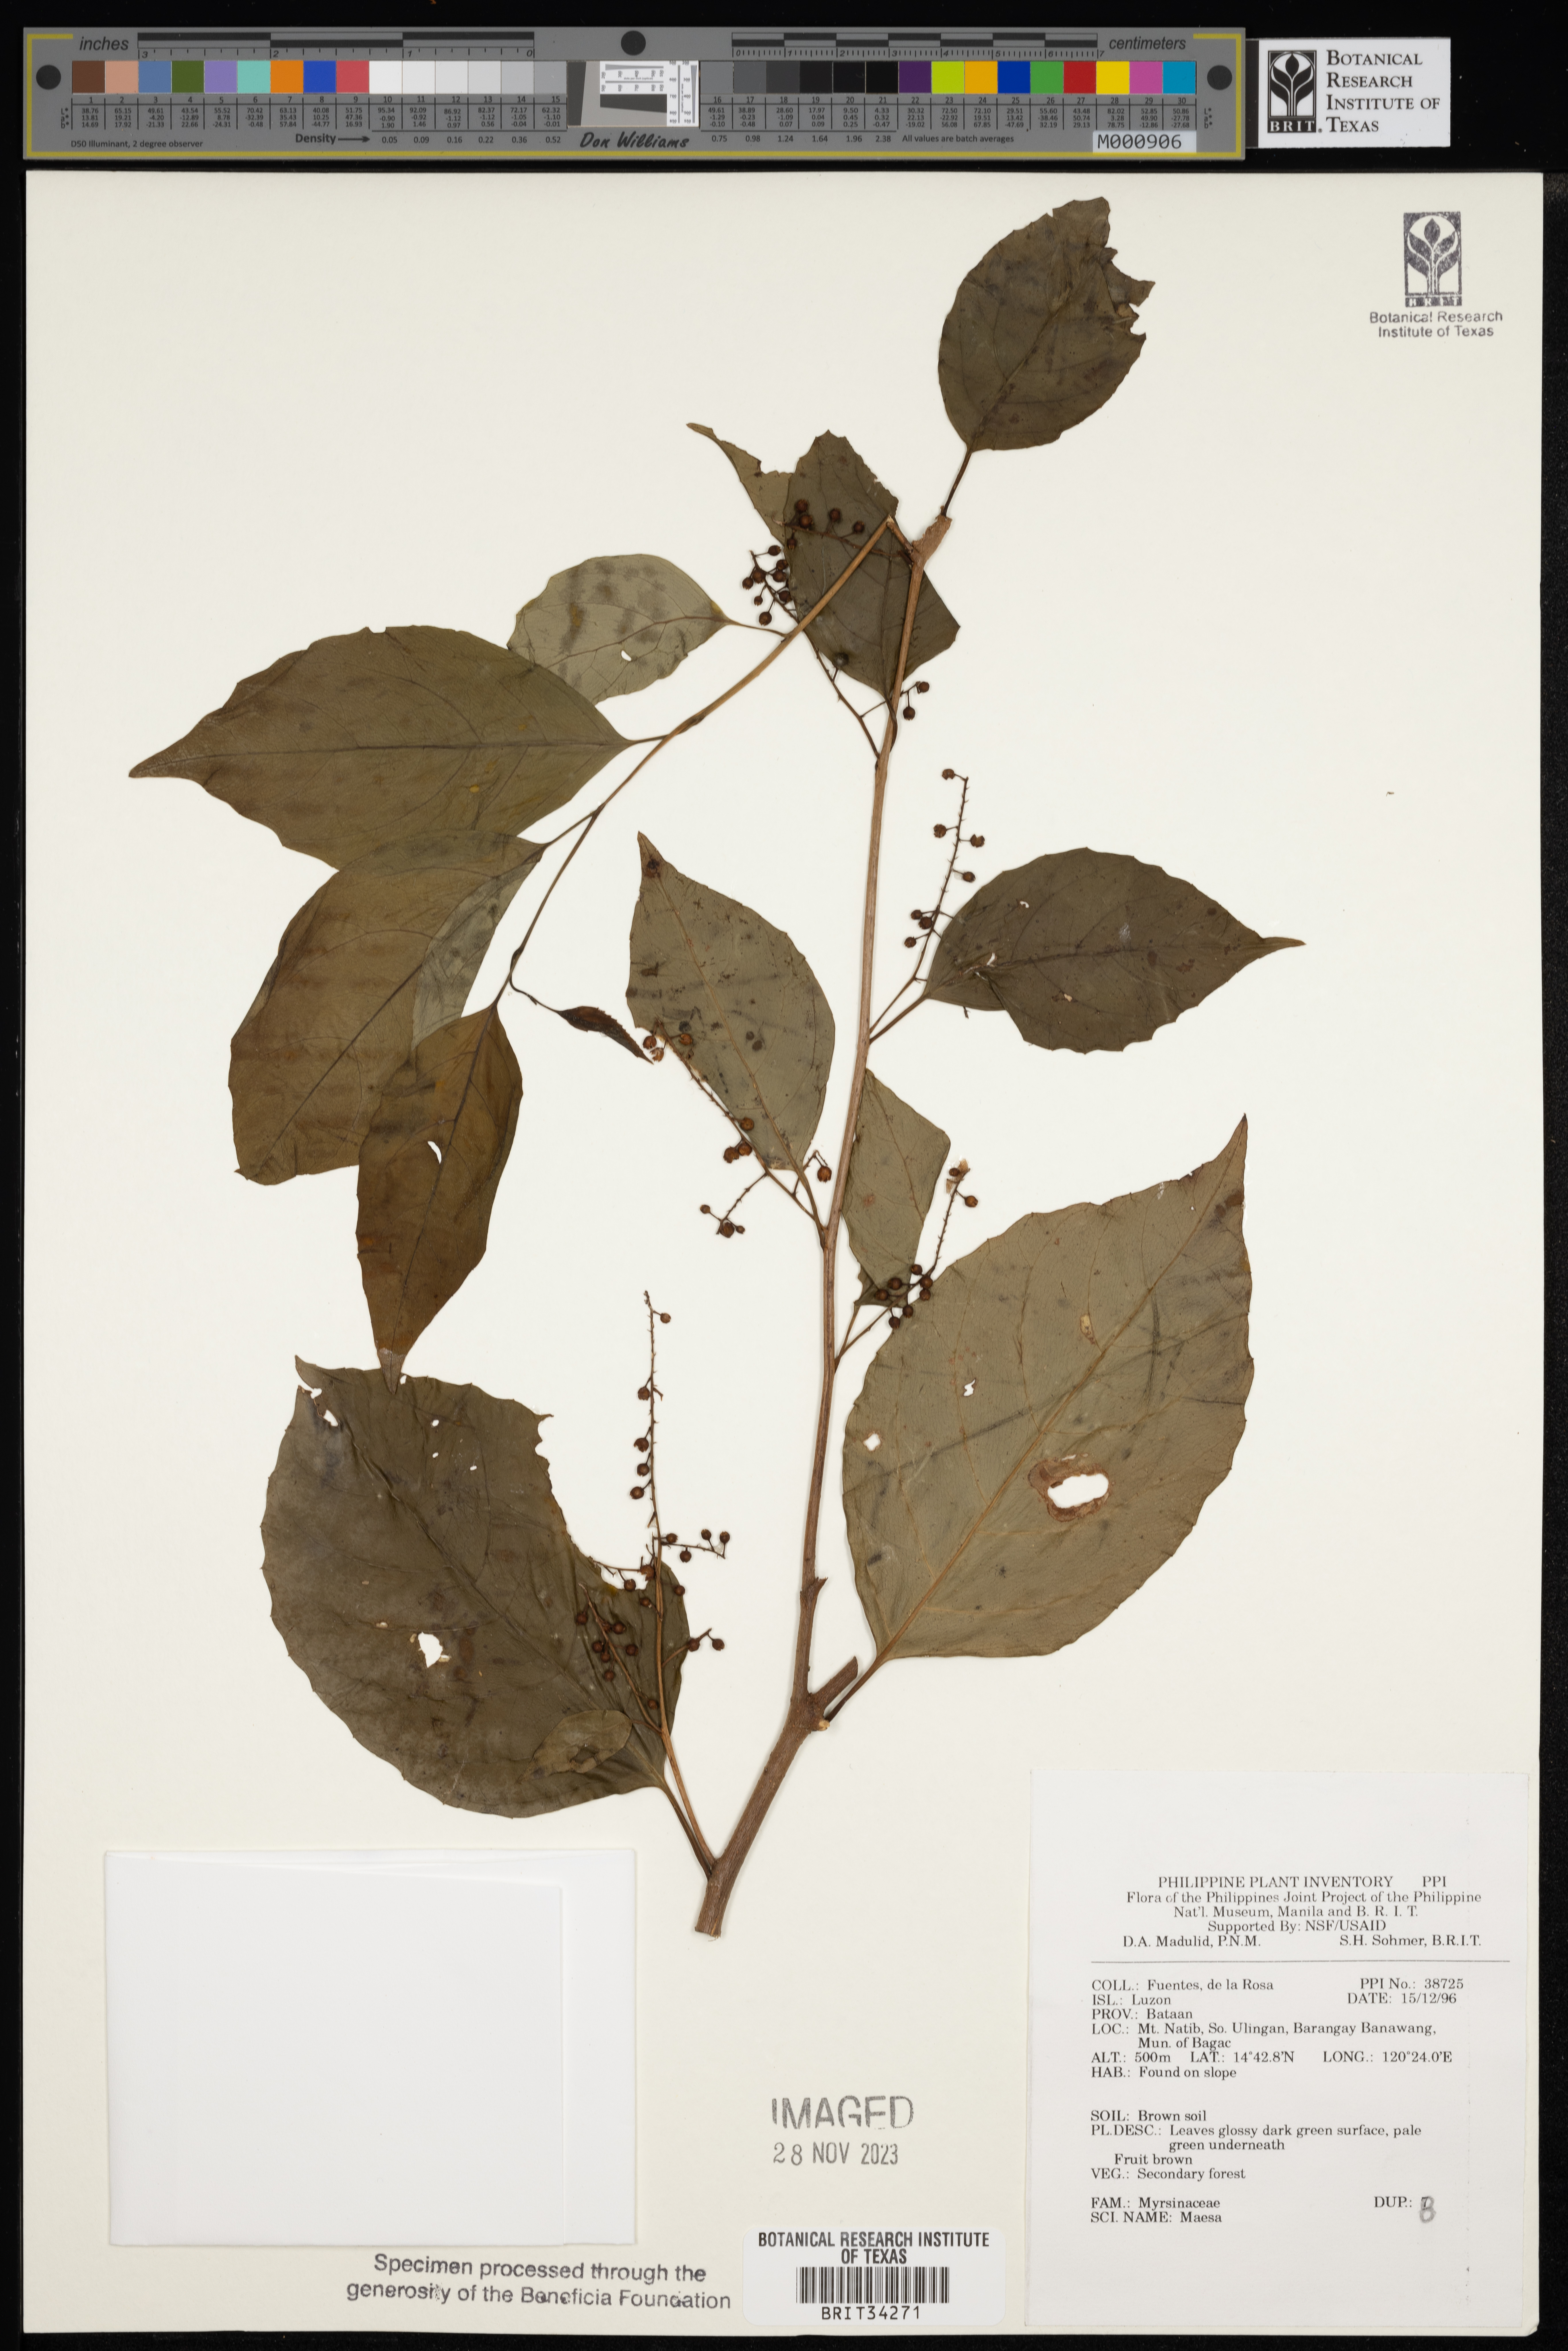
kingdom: Plantae
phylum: Tracheophyta
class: Magnoliopsida
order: Ericales
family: Primulaceae
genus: Maesa
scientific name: Maesa
